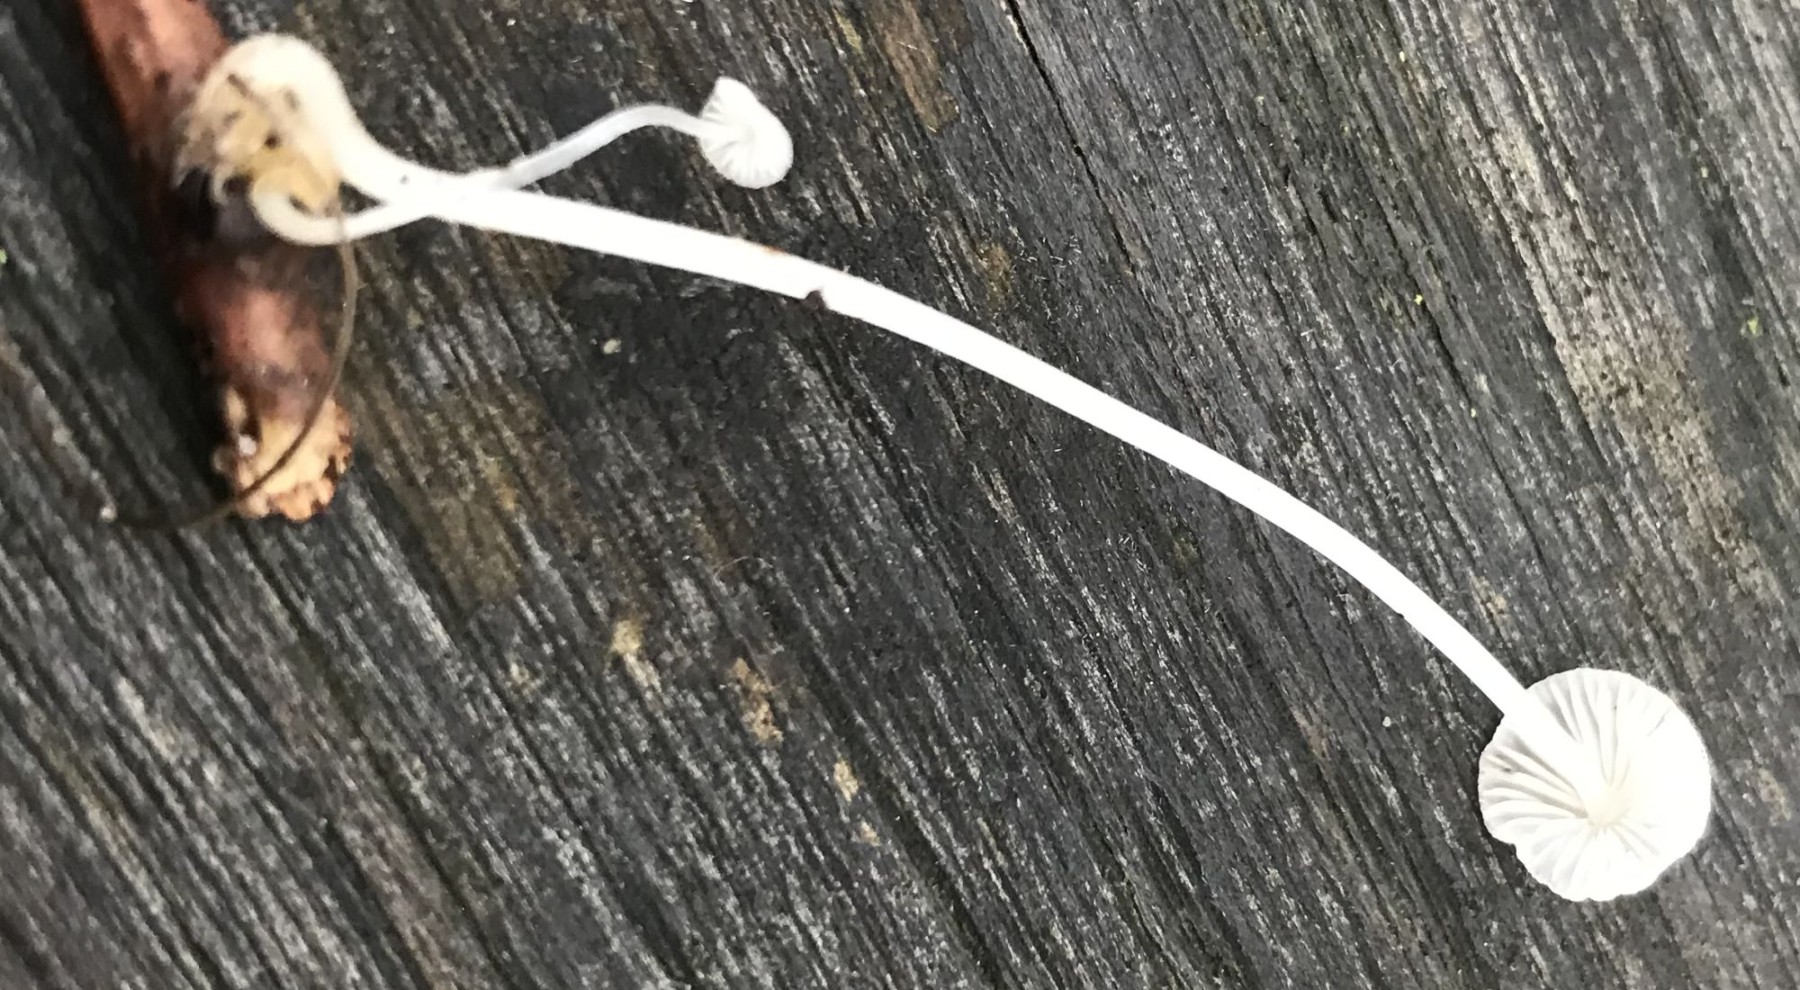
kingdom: Fungi
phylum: Basidiomycota
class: Agaricomycetes
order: Agaricales
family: Mycenaceae
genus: Mycena
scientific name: Mycena
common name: huesvamp
